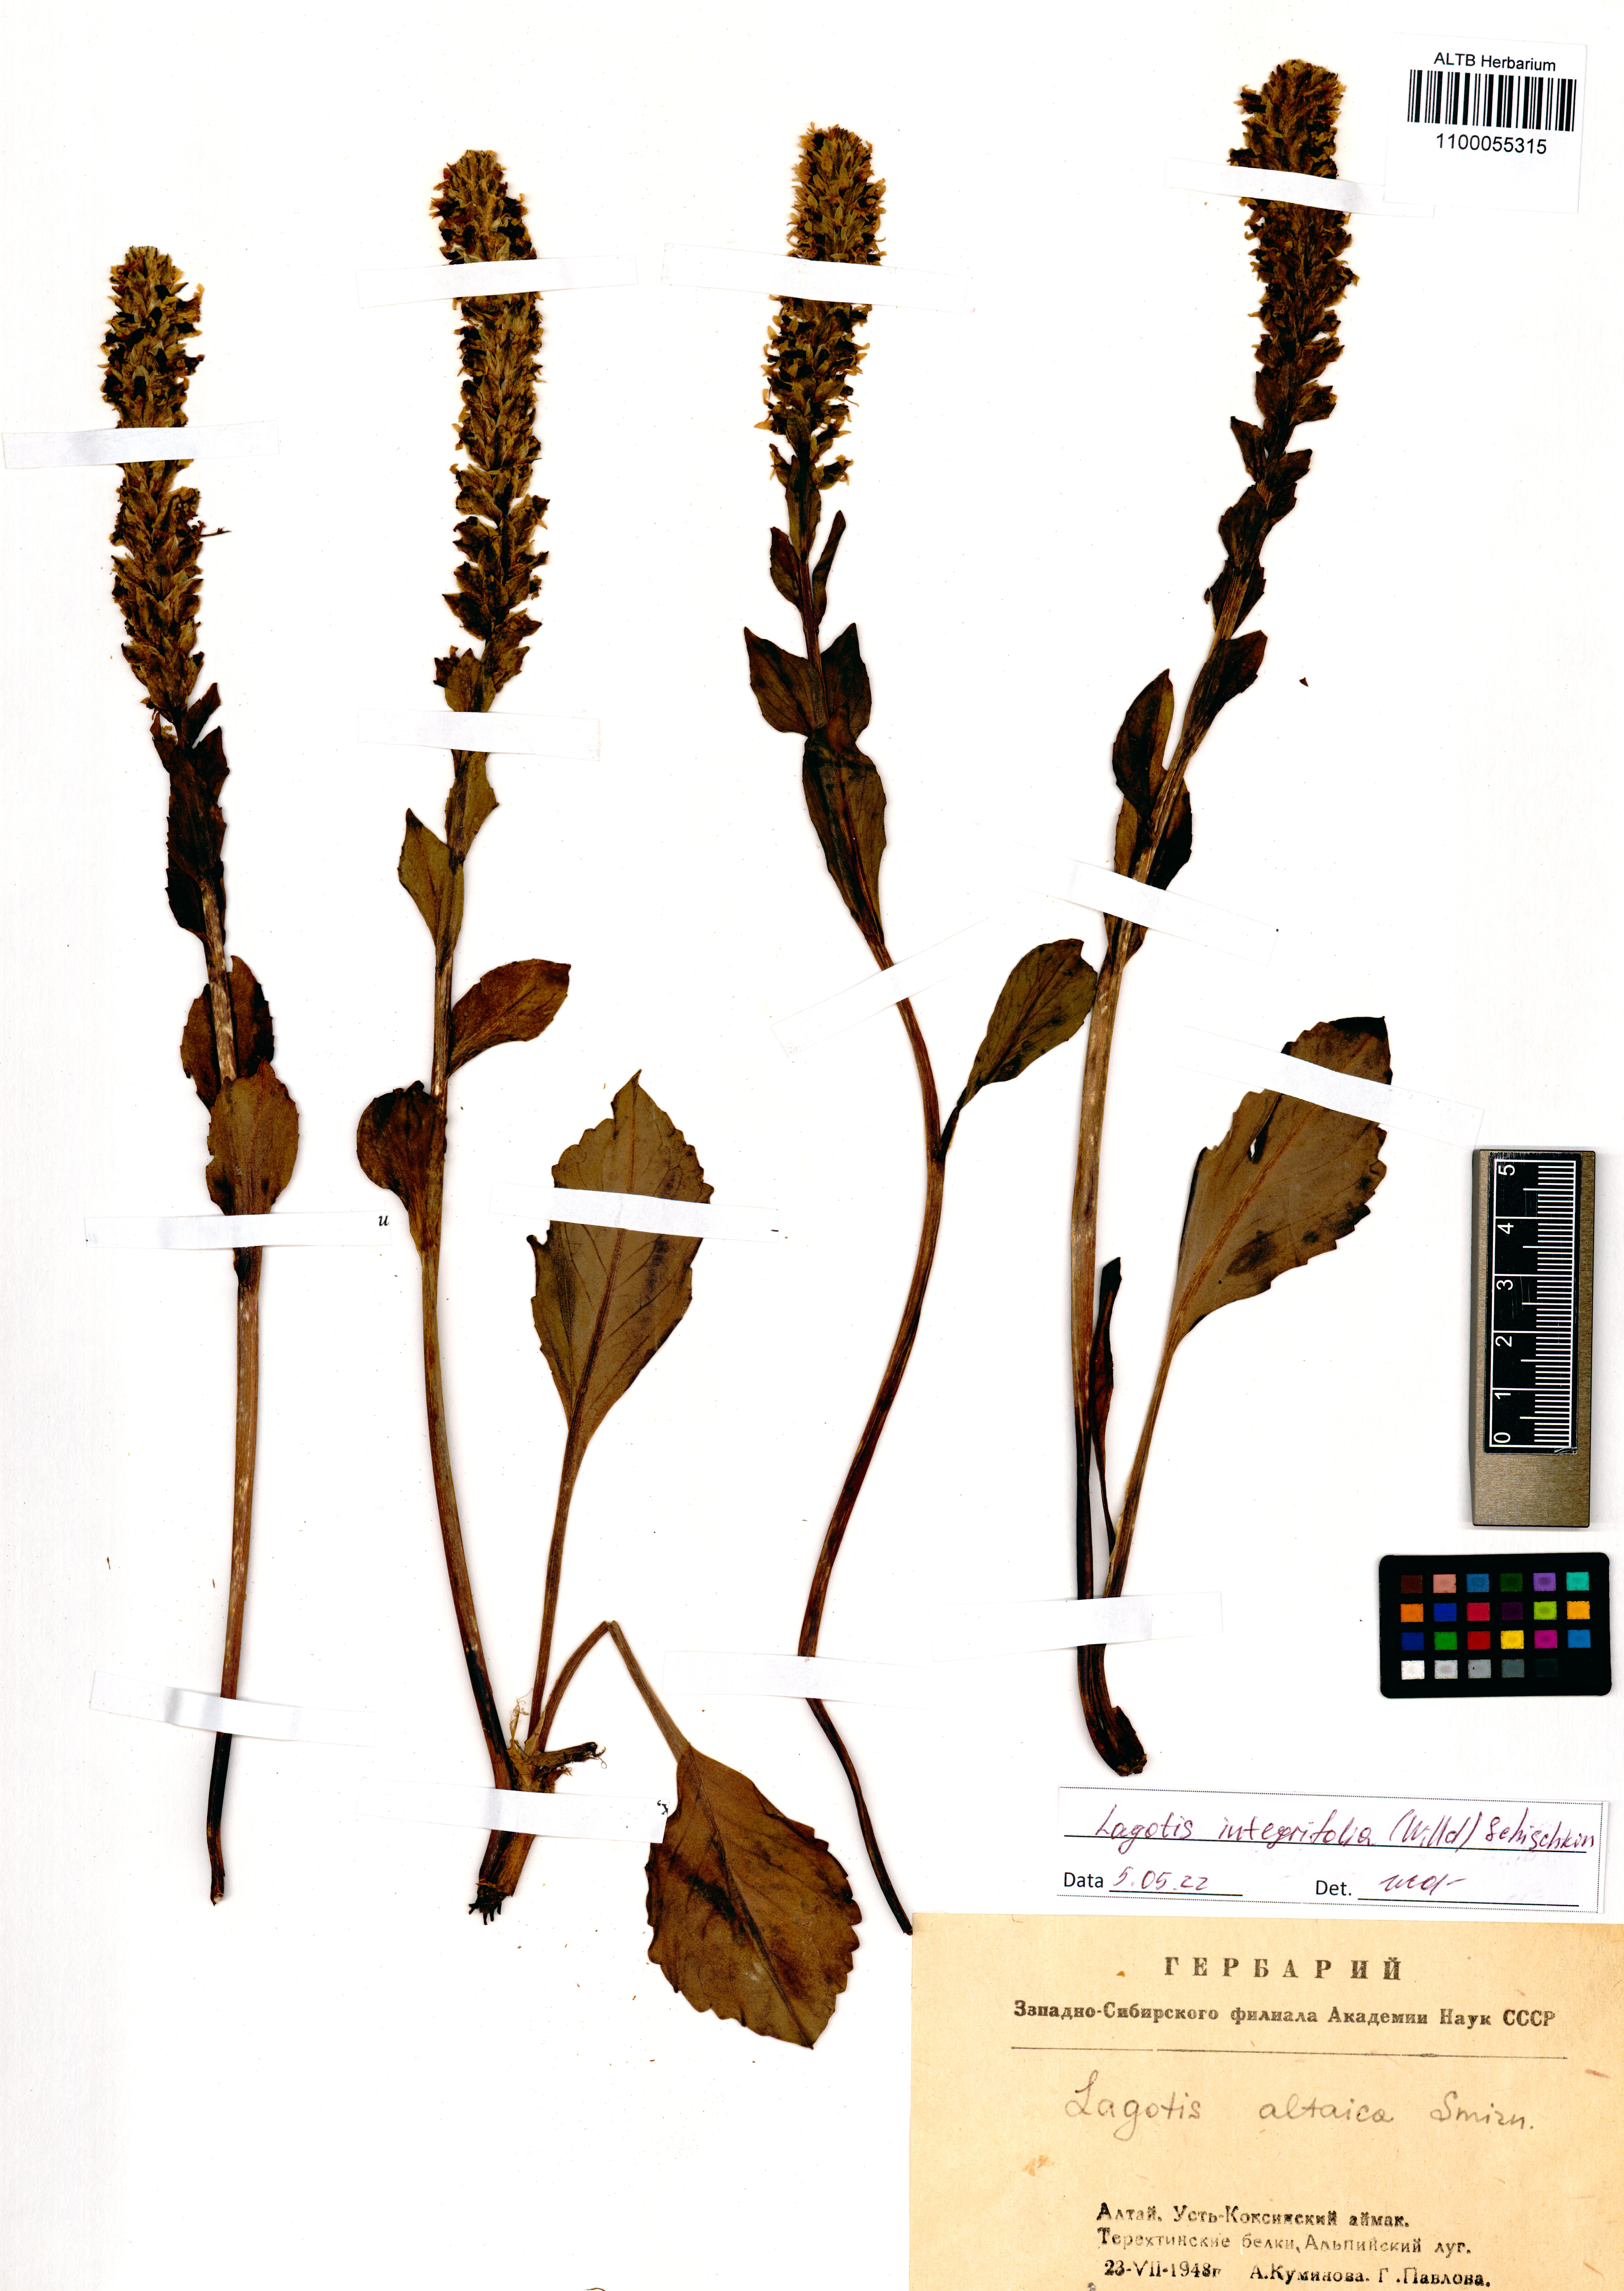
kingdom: Plantae
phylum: Tracheophyta
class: Magnoliopsida
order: Lamiales
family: Plantaginaceae
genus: Lagotis
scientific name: Lagotis integrifolia
